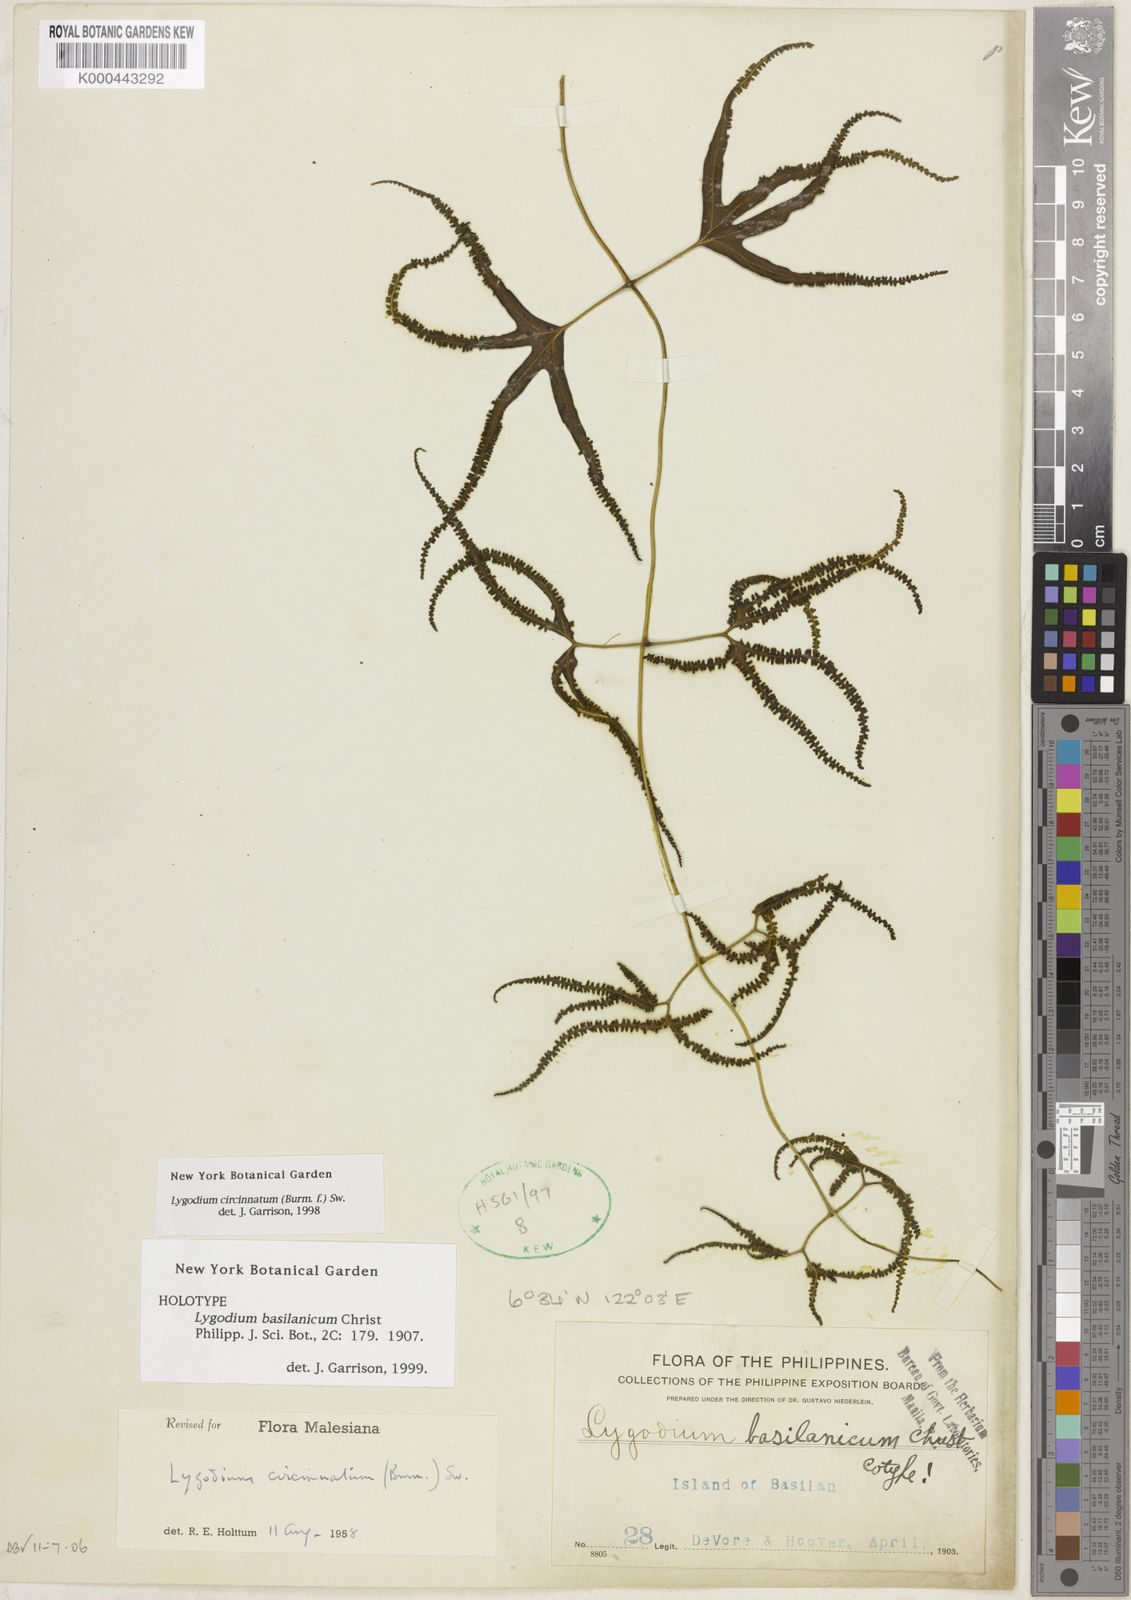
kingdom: Plantae
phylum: Tracheophyta
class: Polypodiopsida
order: Schizaeales
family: Lygodiaceae
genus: Lygodium
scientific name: Lygodium
